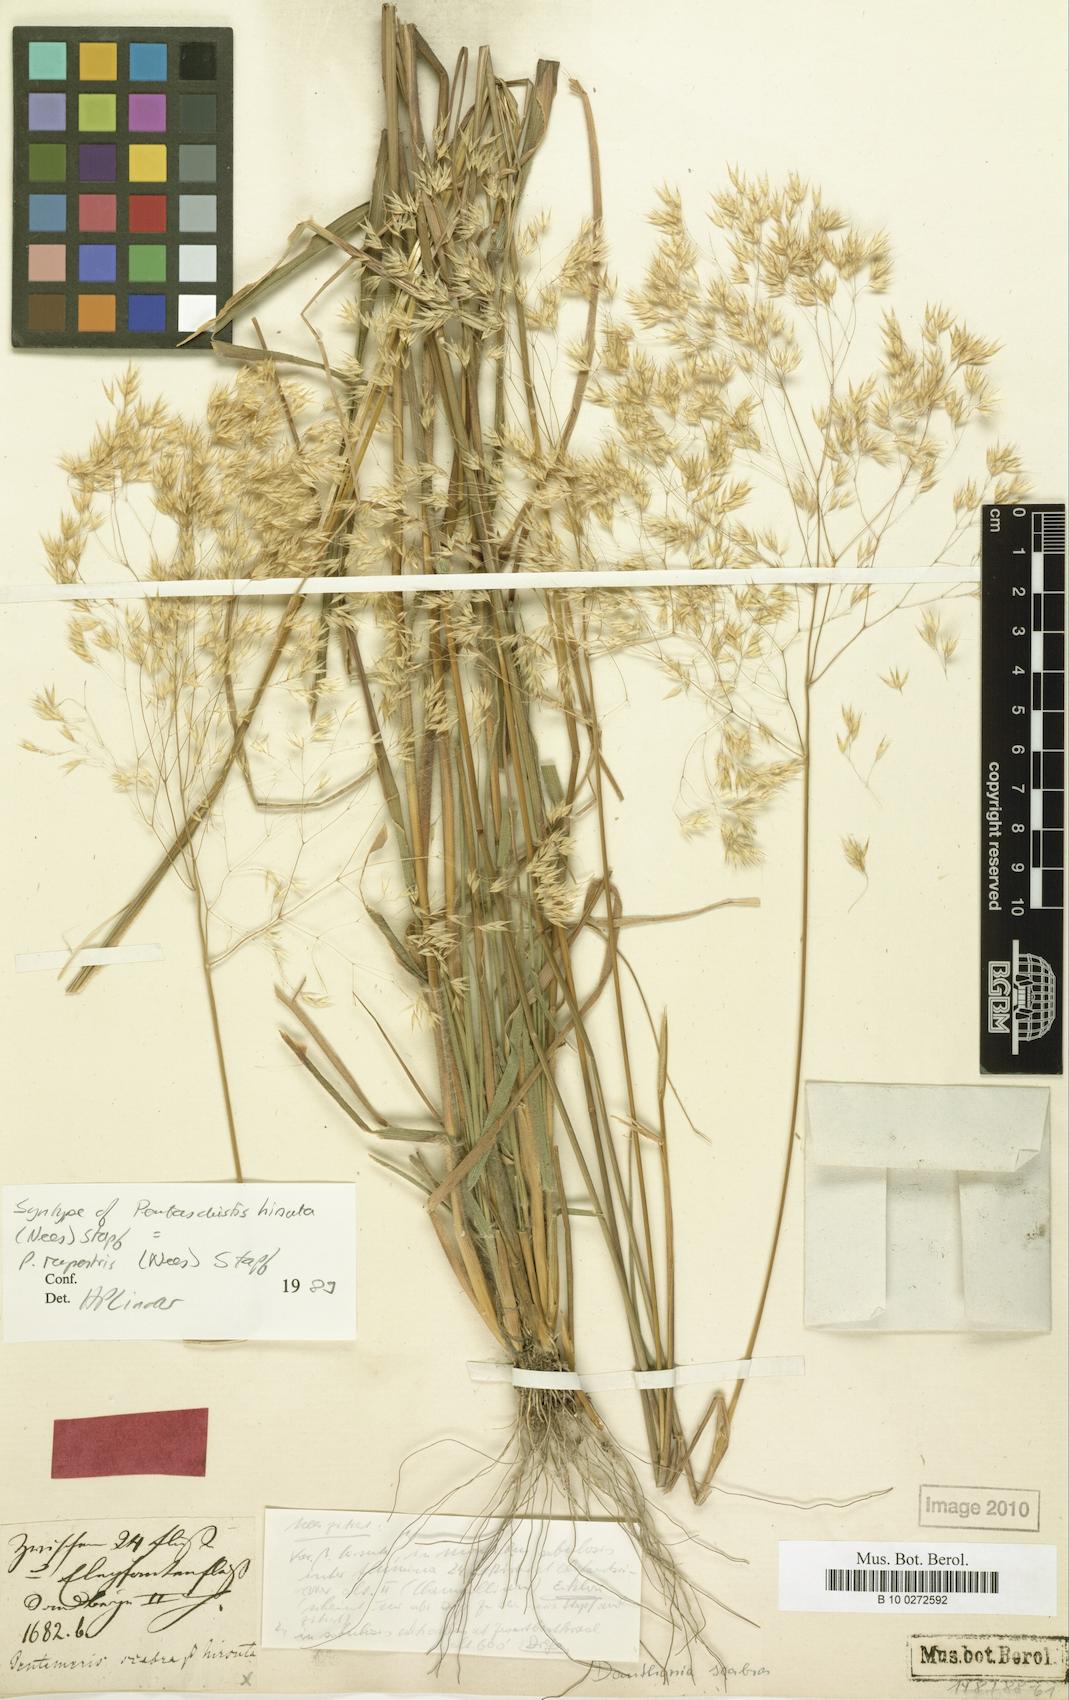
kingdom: Plantae
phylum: Tracheophyta
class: Liliopsida
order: Poales
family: Poaceae
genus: Pentameris
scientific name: Pentameris aurea
